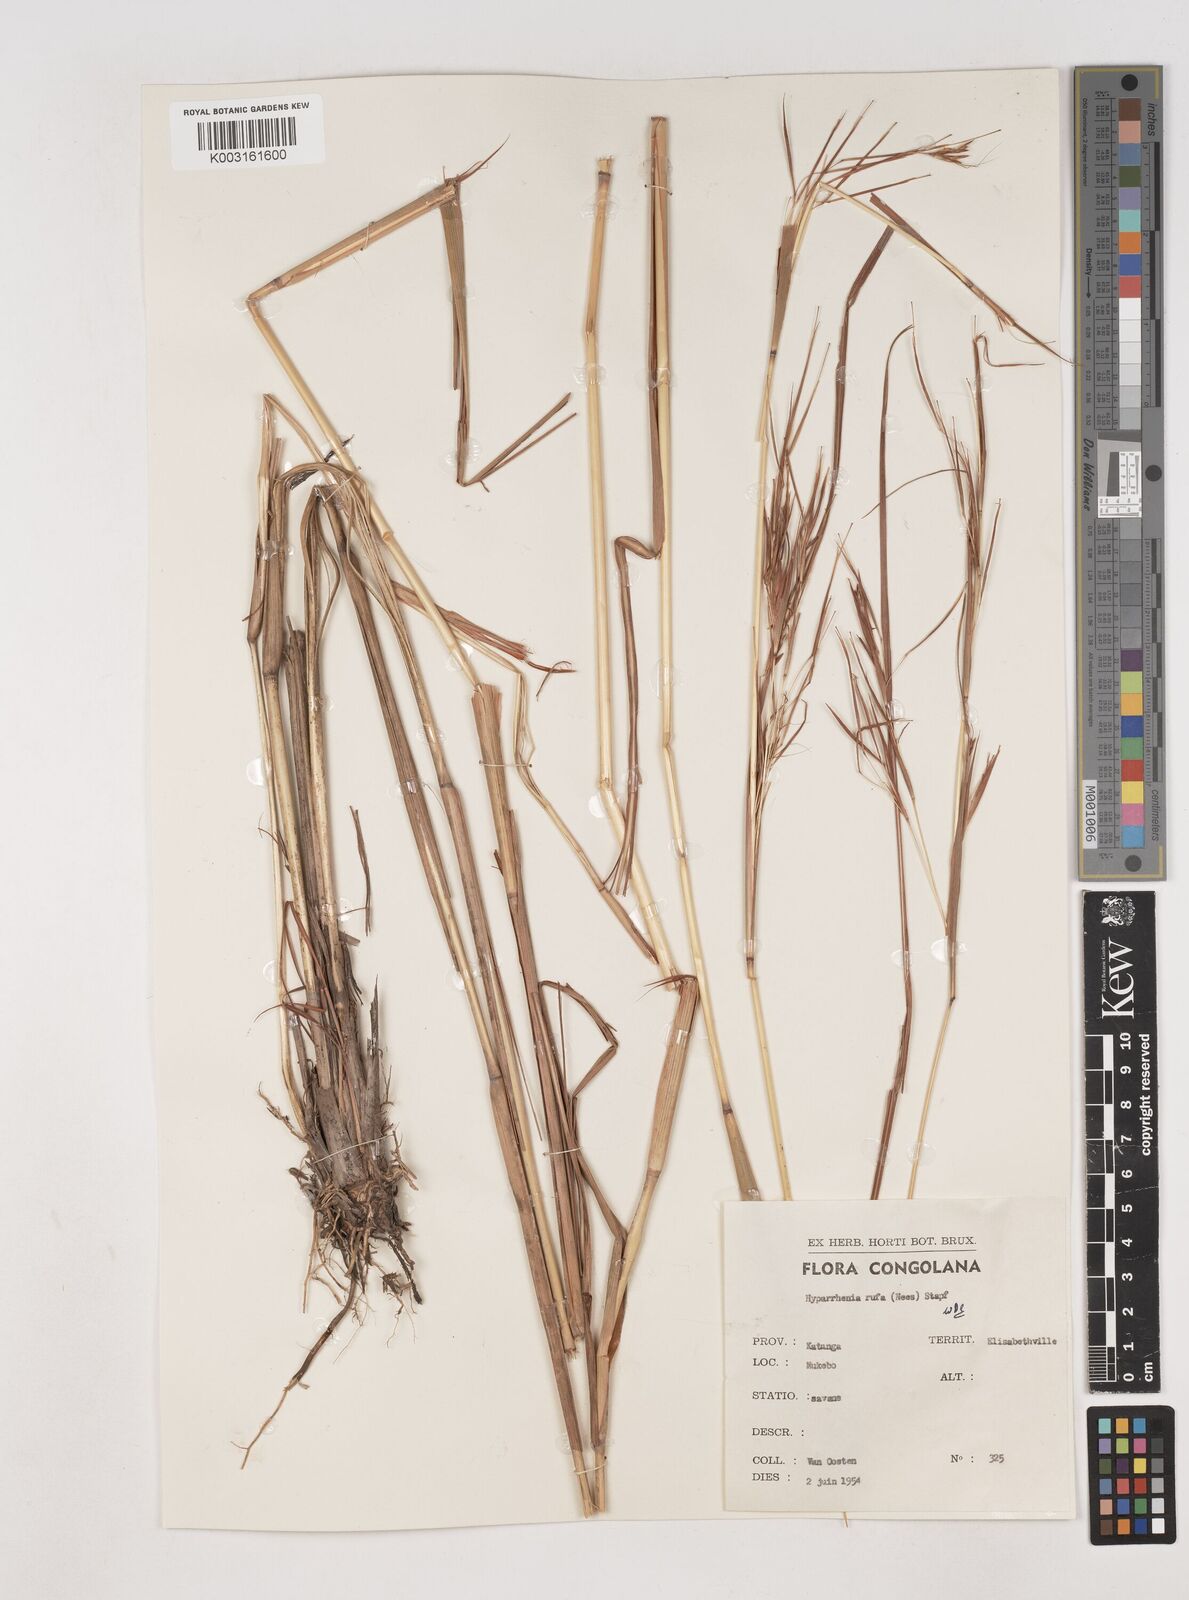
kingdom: Plantae
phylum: Tracheophyta
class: Liliopsida
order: Poales
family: Poaceae
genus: Hyparrhenia
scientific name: Hyparrhenia rufa
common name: Jaraguagrass
